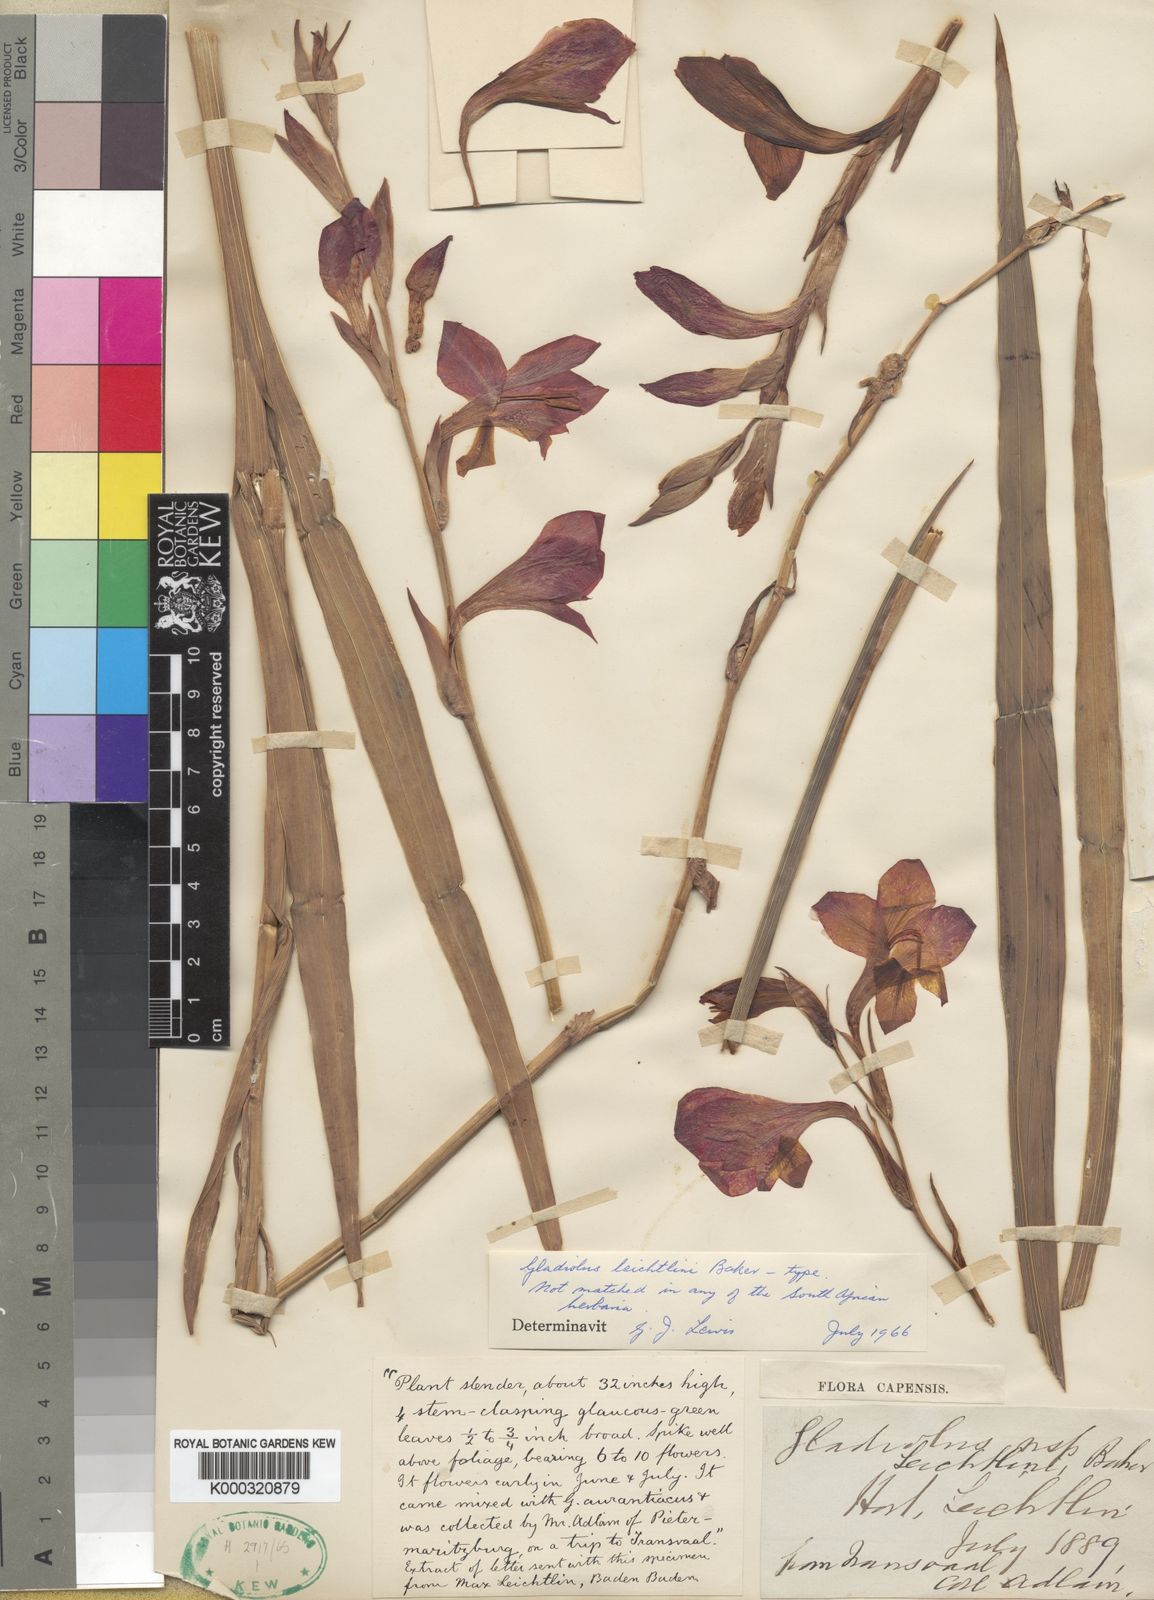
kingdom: Plantae
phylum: Tracheophyta
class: Liliopsida
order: Asparagales
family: Iridaceae
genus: Gladiolus
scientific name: Gladiolus dalenii
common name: Cornflag
